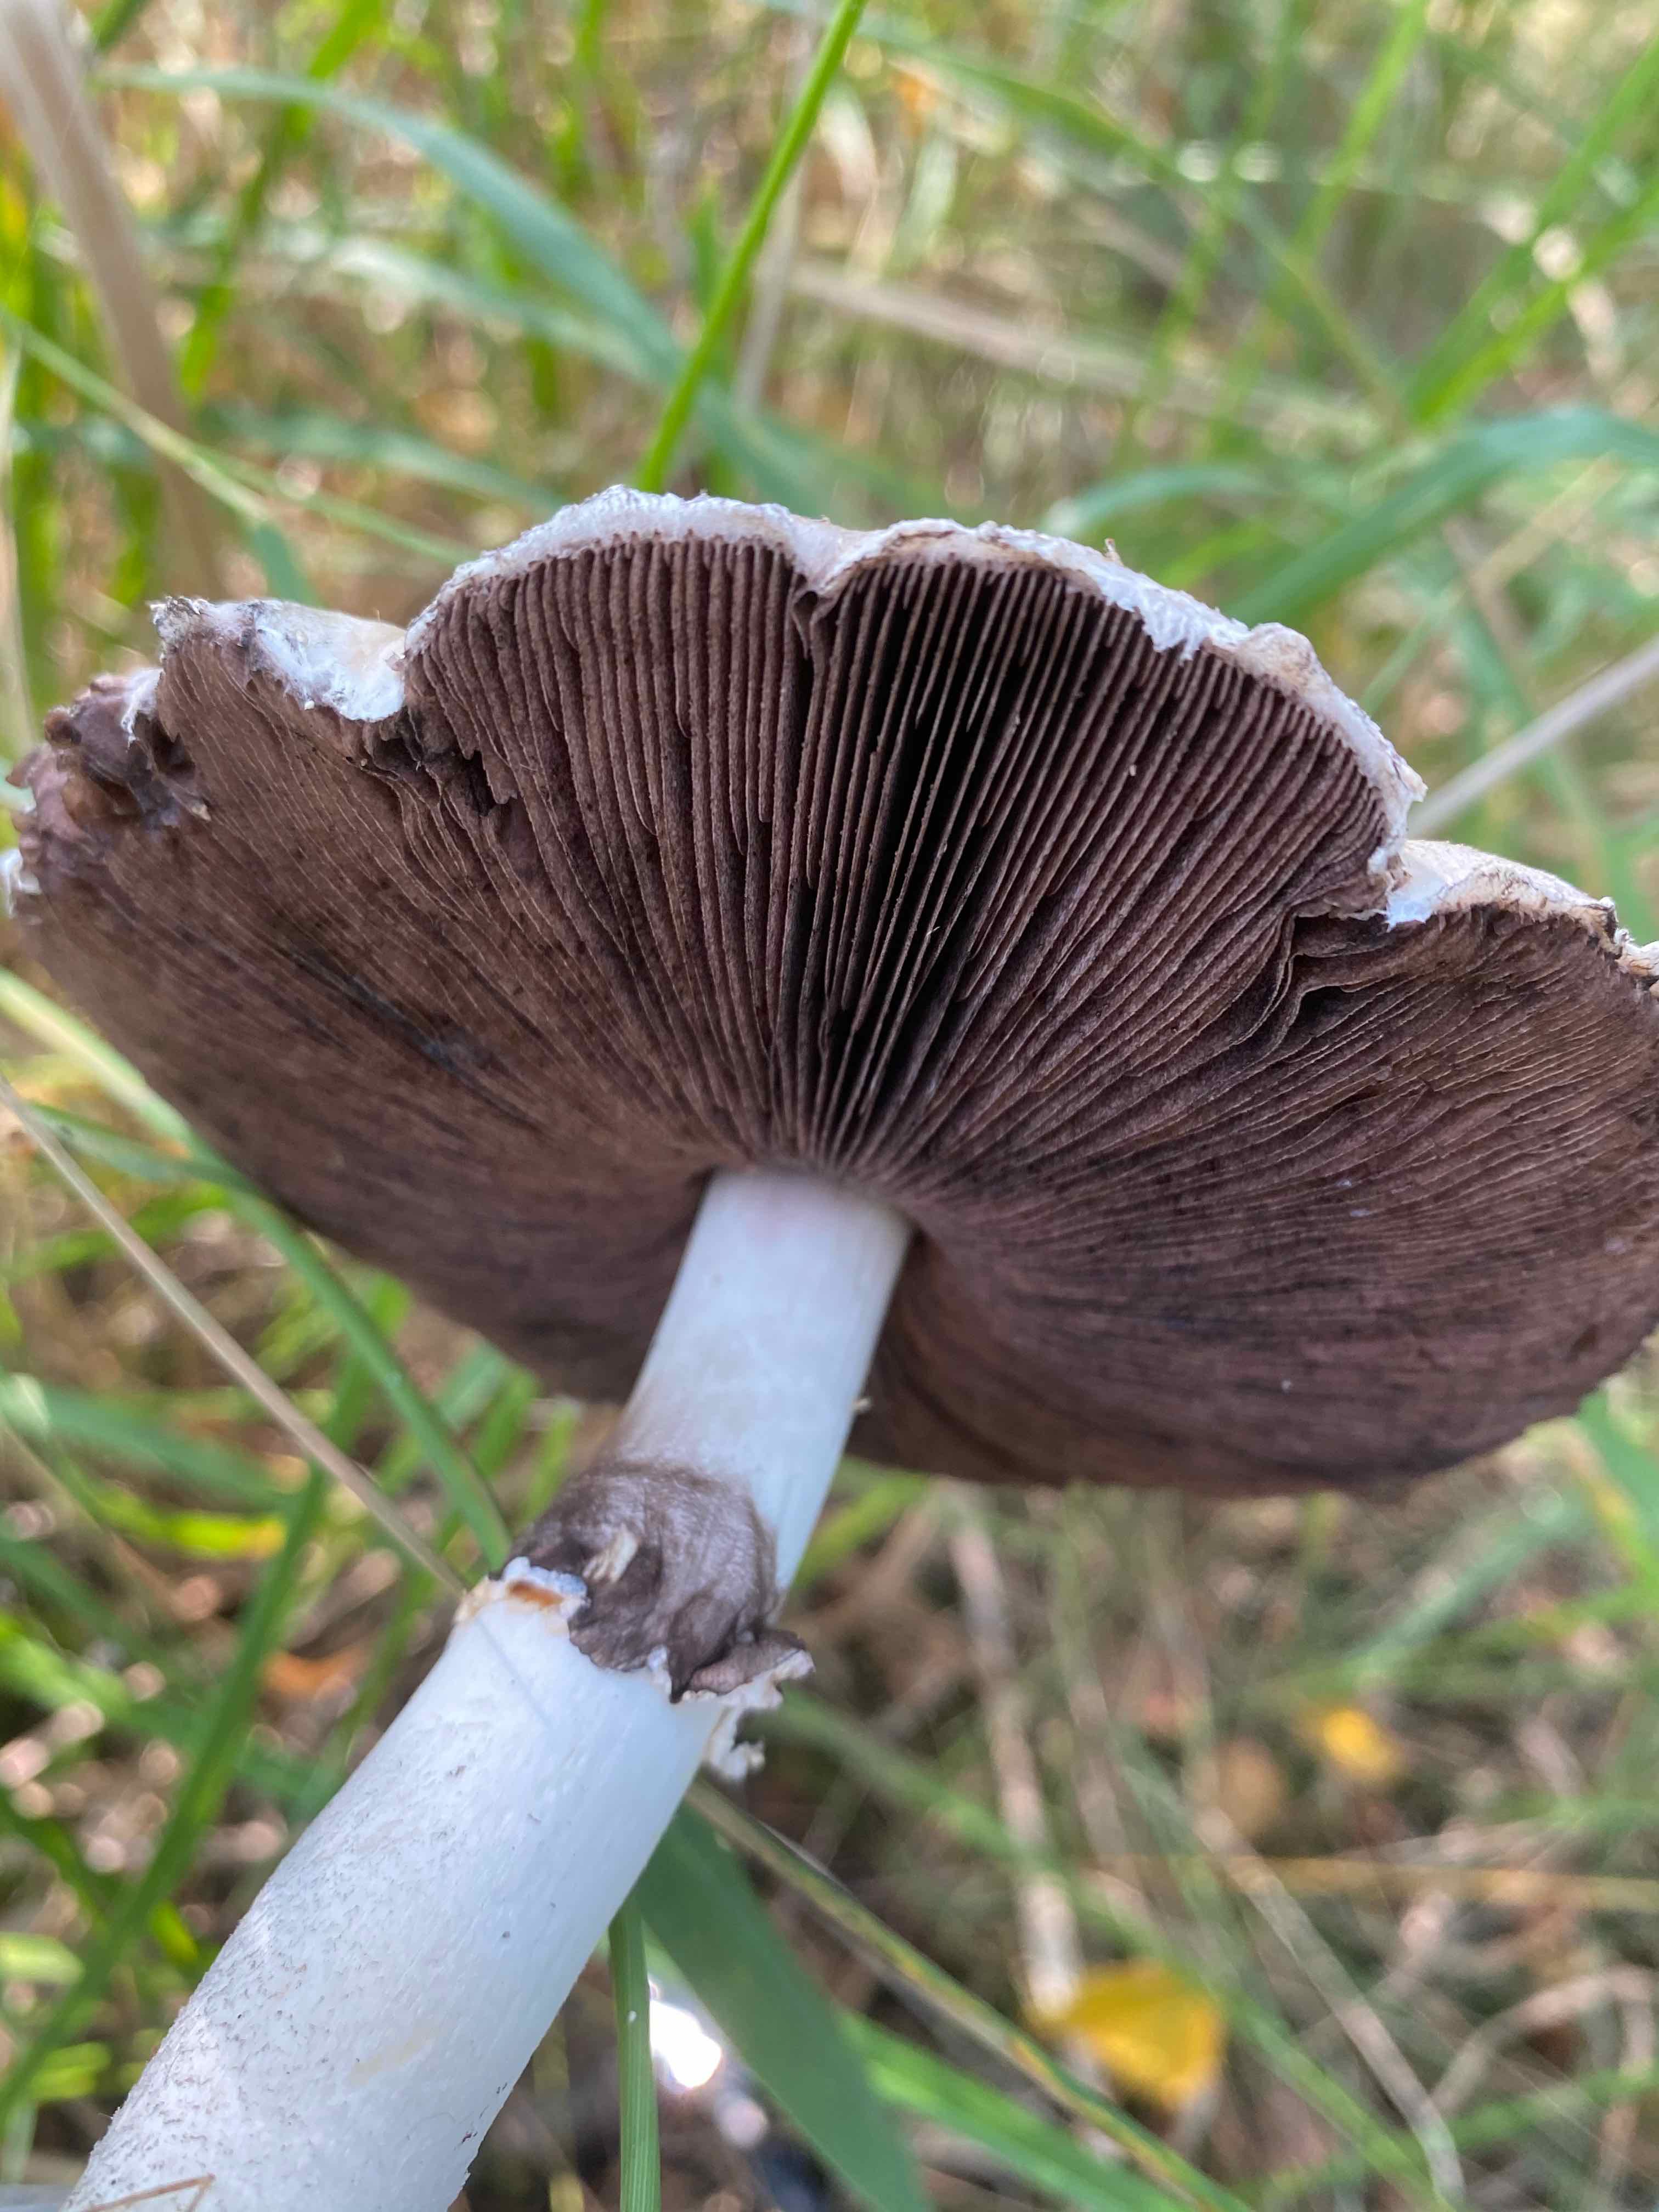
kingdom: Fungi
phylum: Basidiomycota
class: Agaricomycetes
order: Agaricales
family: Agaricaceae
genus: Agaricus
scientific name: Agaricus
